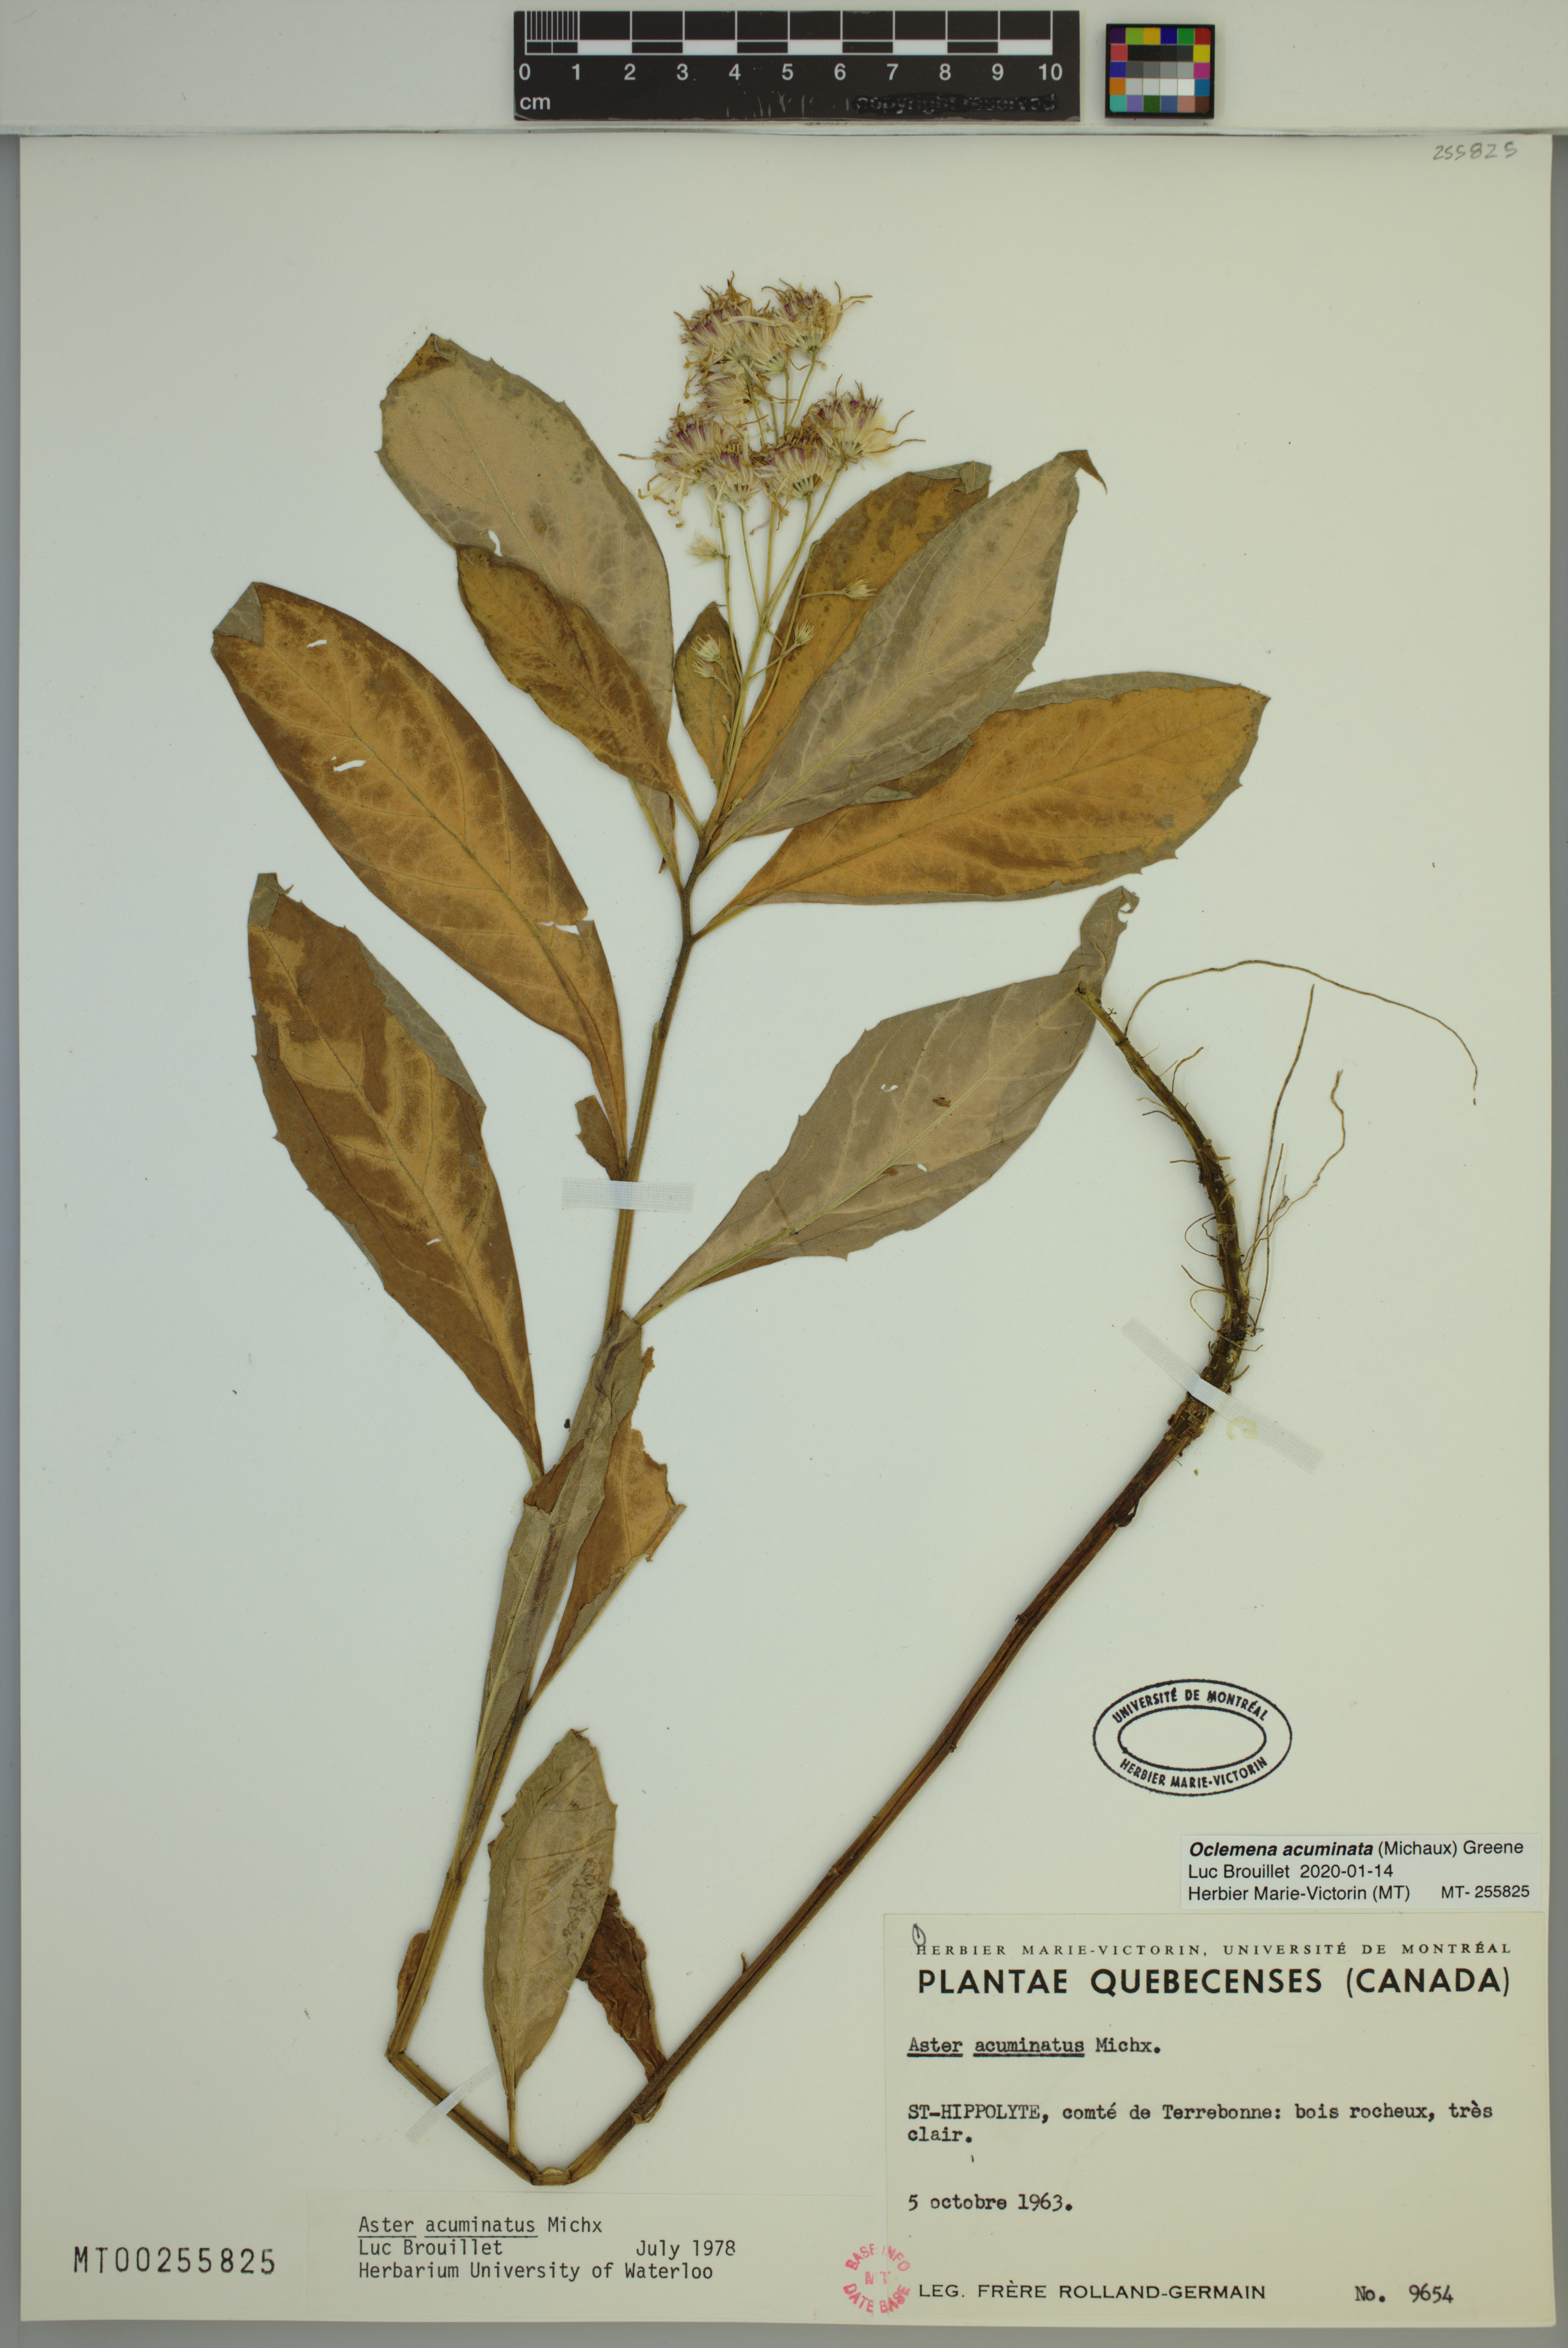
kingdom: Plantae
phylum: Tracheophyta
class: Magnoliopsida
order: Asterales
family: Asteraceae
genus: Oclemena
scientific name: Oclemena acuminata
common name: Mountain aster
